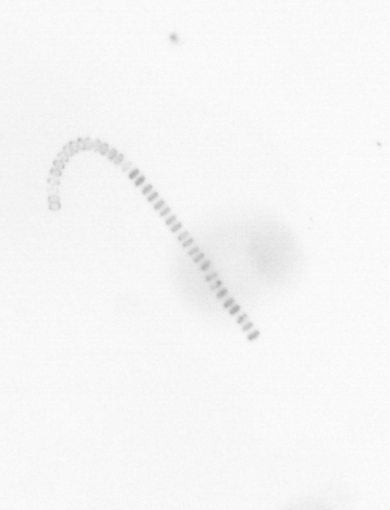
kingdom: Chromista
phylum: Ochrophyta
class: Bacillariophyceae
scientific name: Bacillariophyceae
